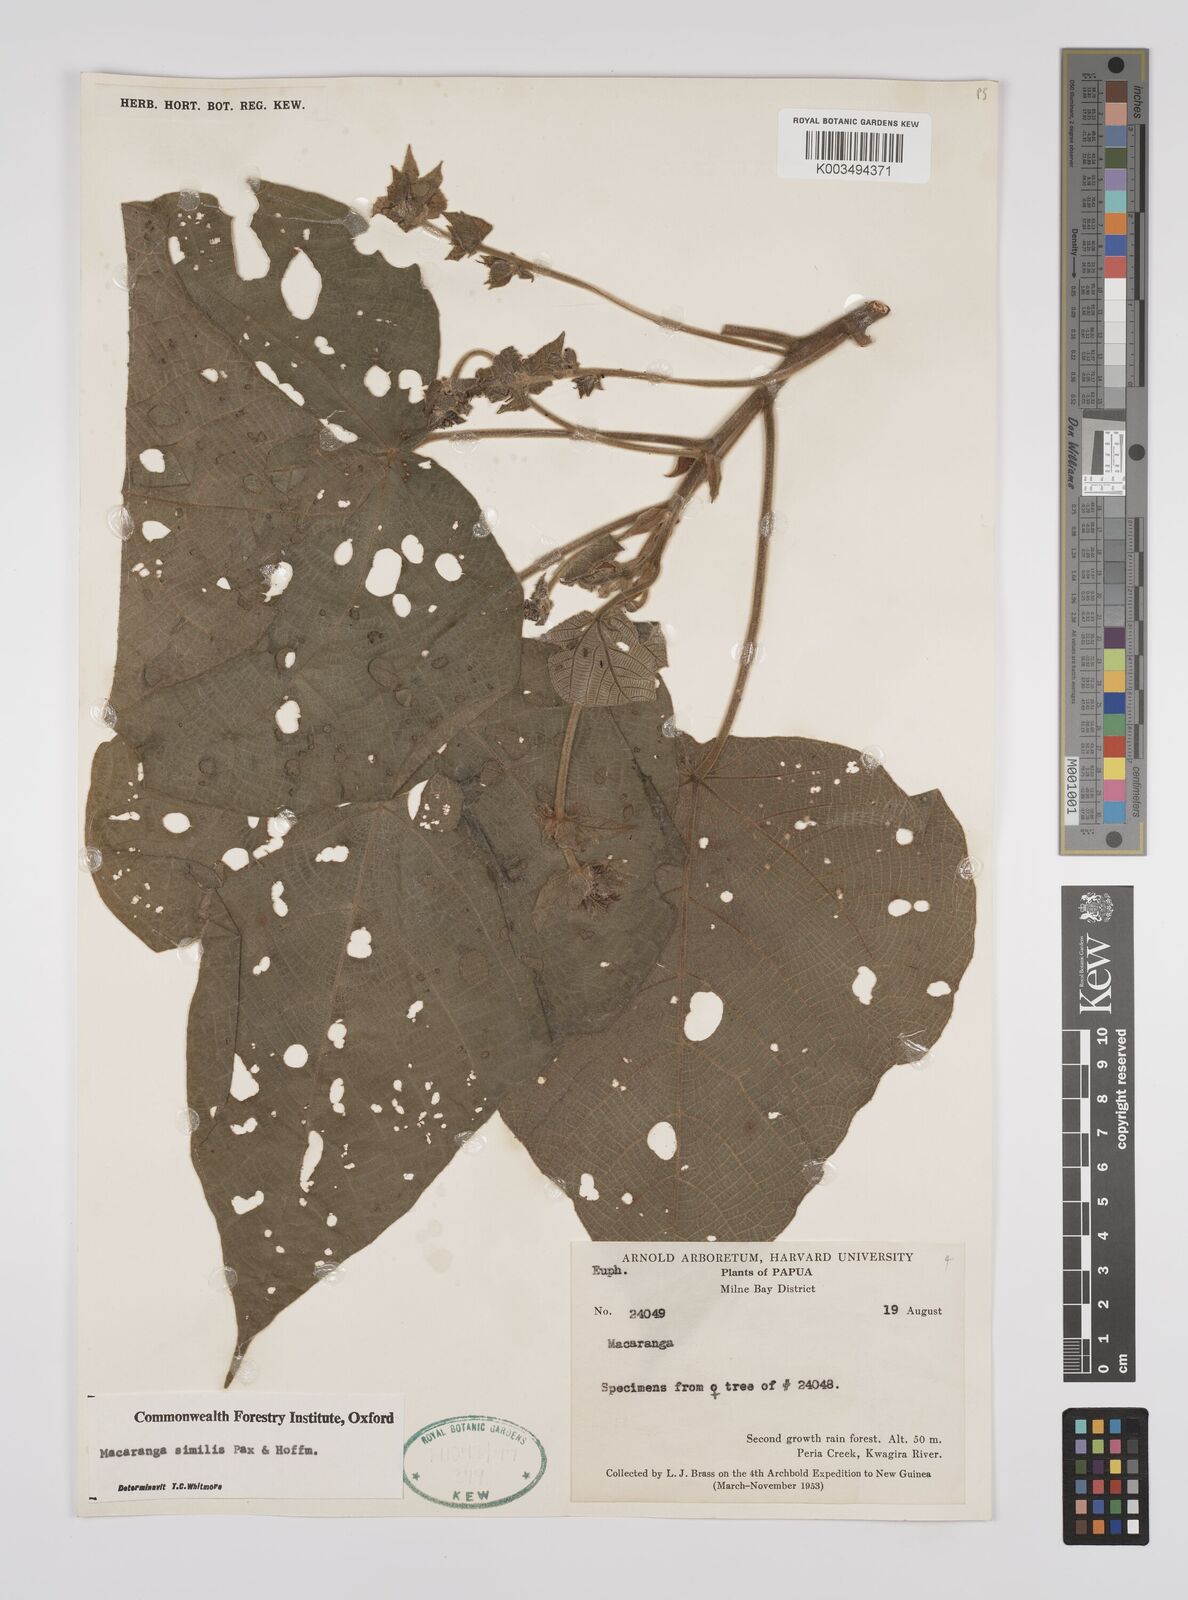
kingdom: Plantae
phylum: Tracheophyta
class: Magnoliopsida
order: Malpighiales
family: Euphorbiaceae
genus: Macaranga
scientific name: Macaranga similis
